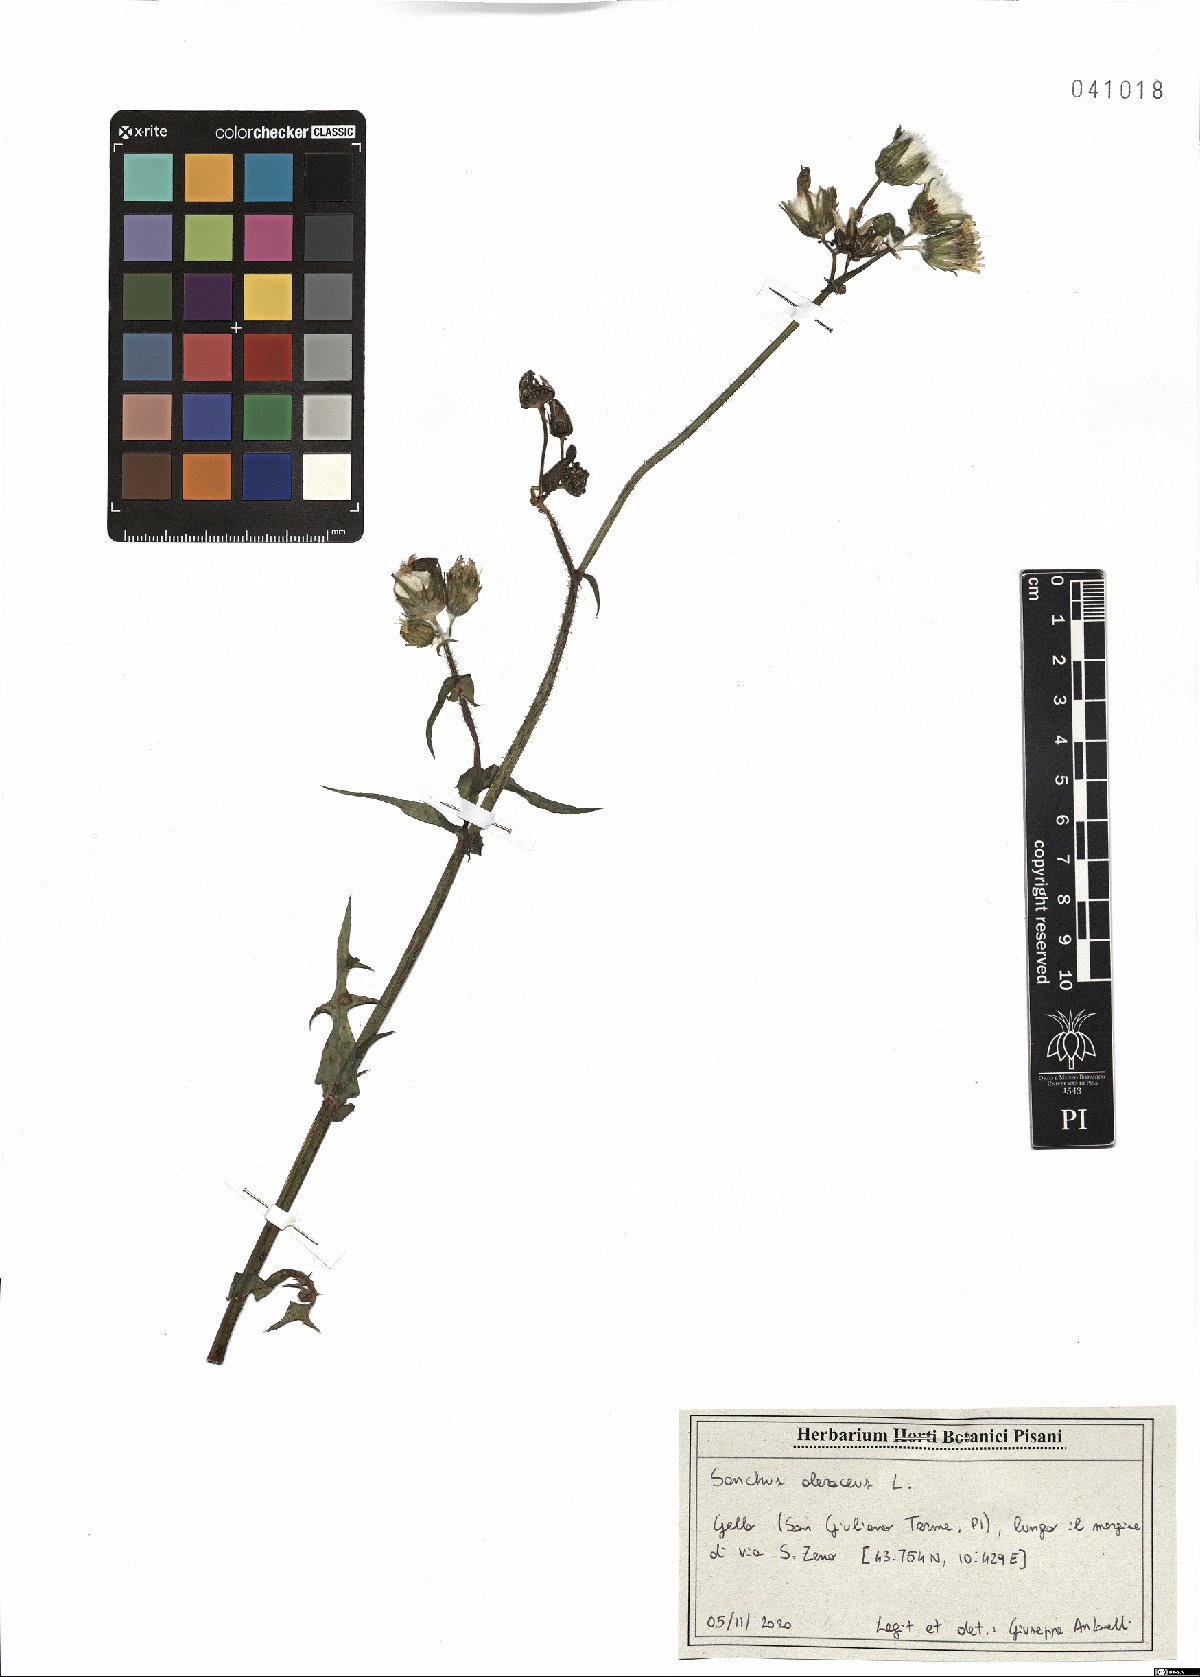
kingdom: Plantae
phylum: Tracheophyta
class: Magnoliopsida
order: Asterales
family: Asteraceae
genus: Sonchus
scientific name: Sonchus oleraceus
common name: Common sowthistle
